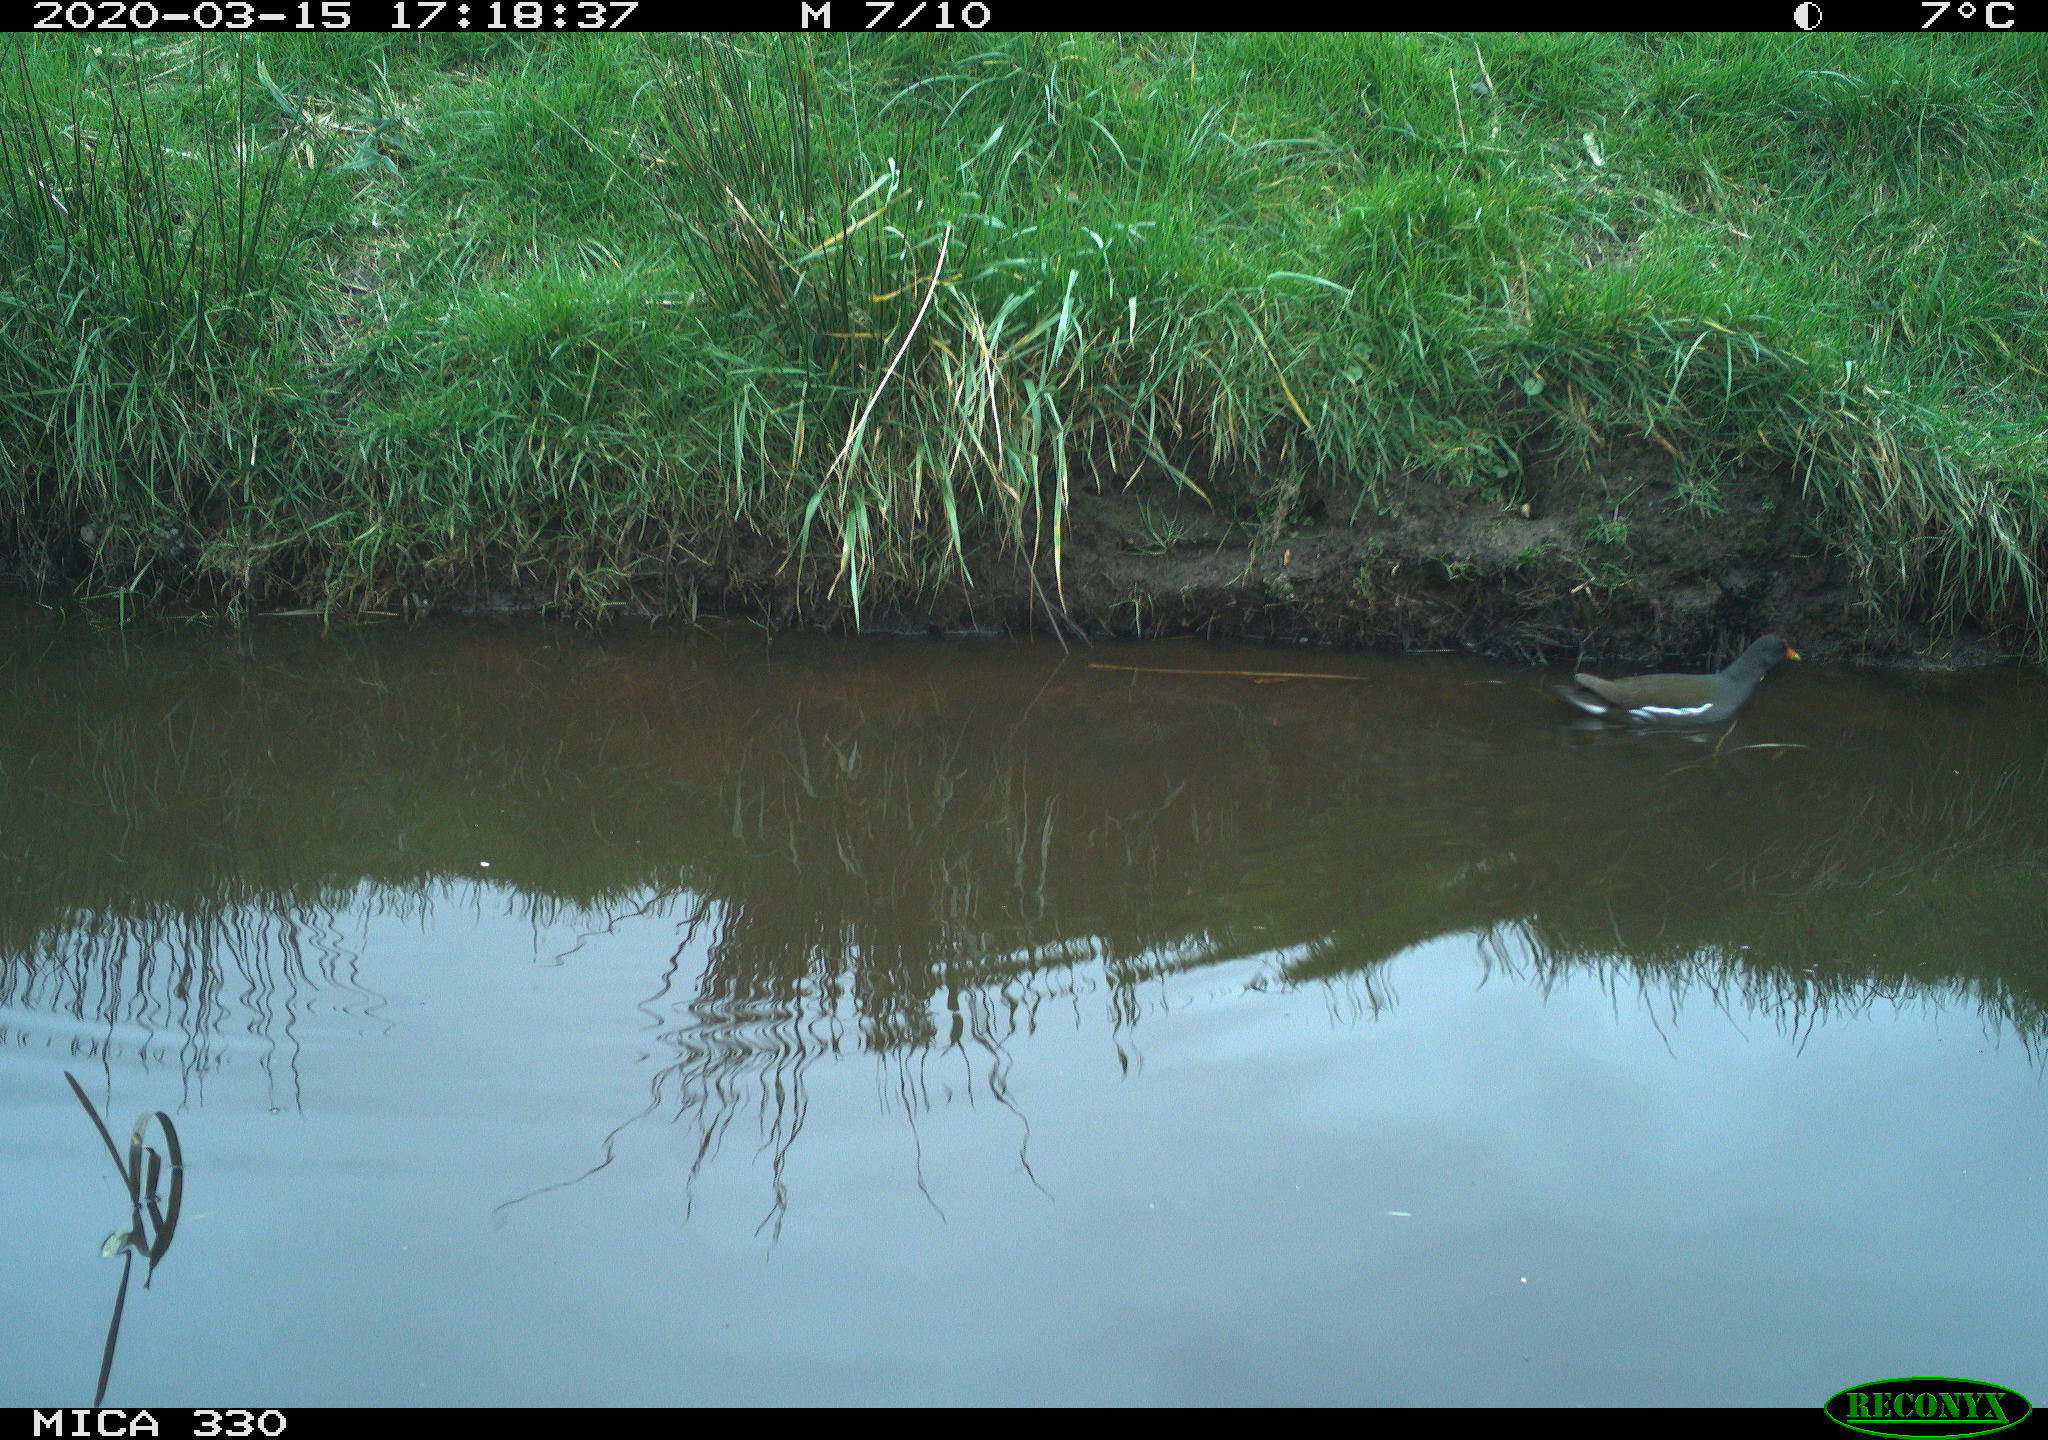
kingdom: Animalia
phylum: Chordata
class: Aves
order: Gruiformes
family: Rallidae
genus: Gallinula
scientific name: Gallinula chloropus
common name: Common moorhen
